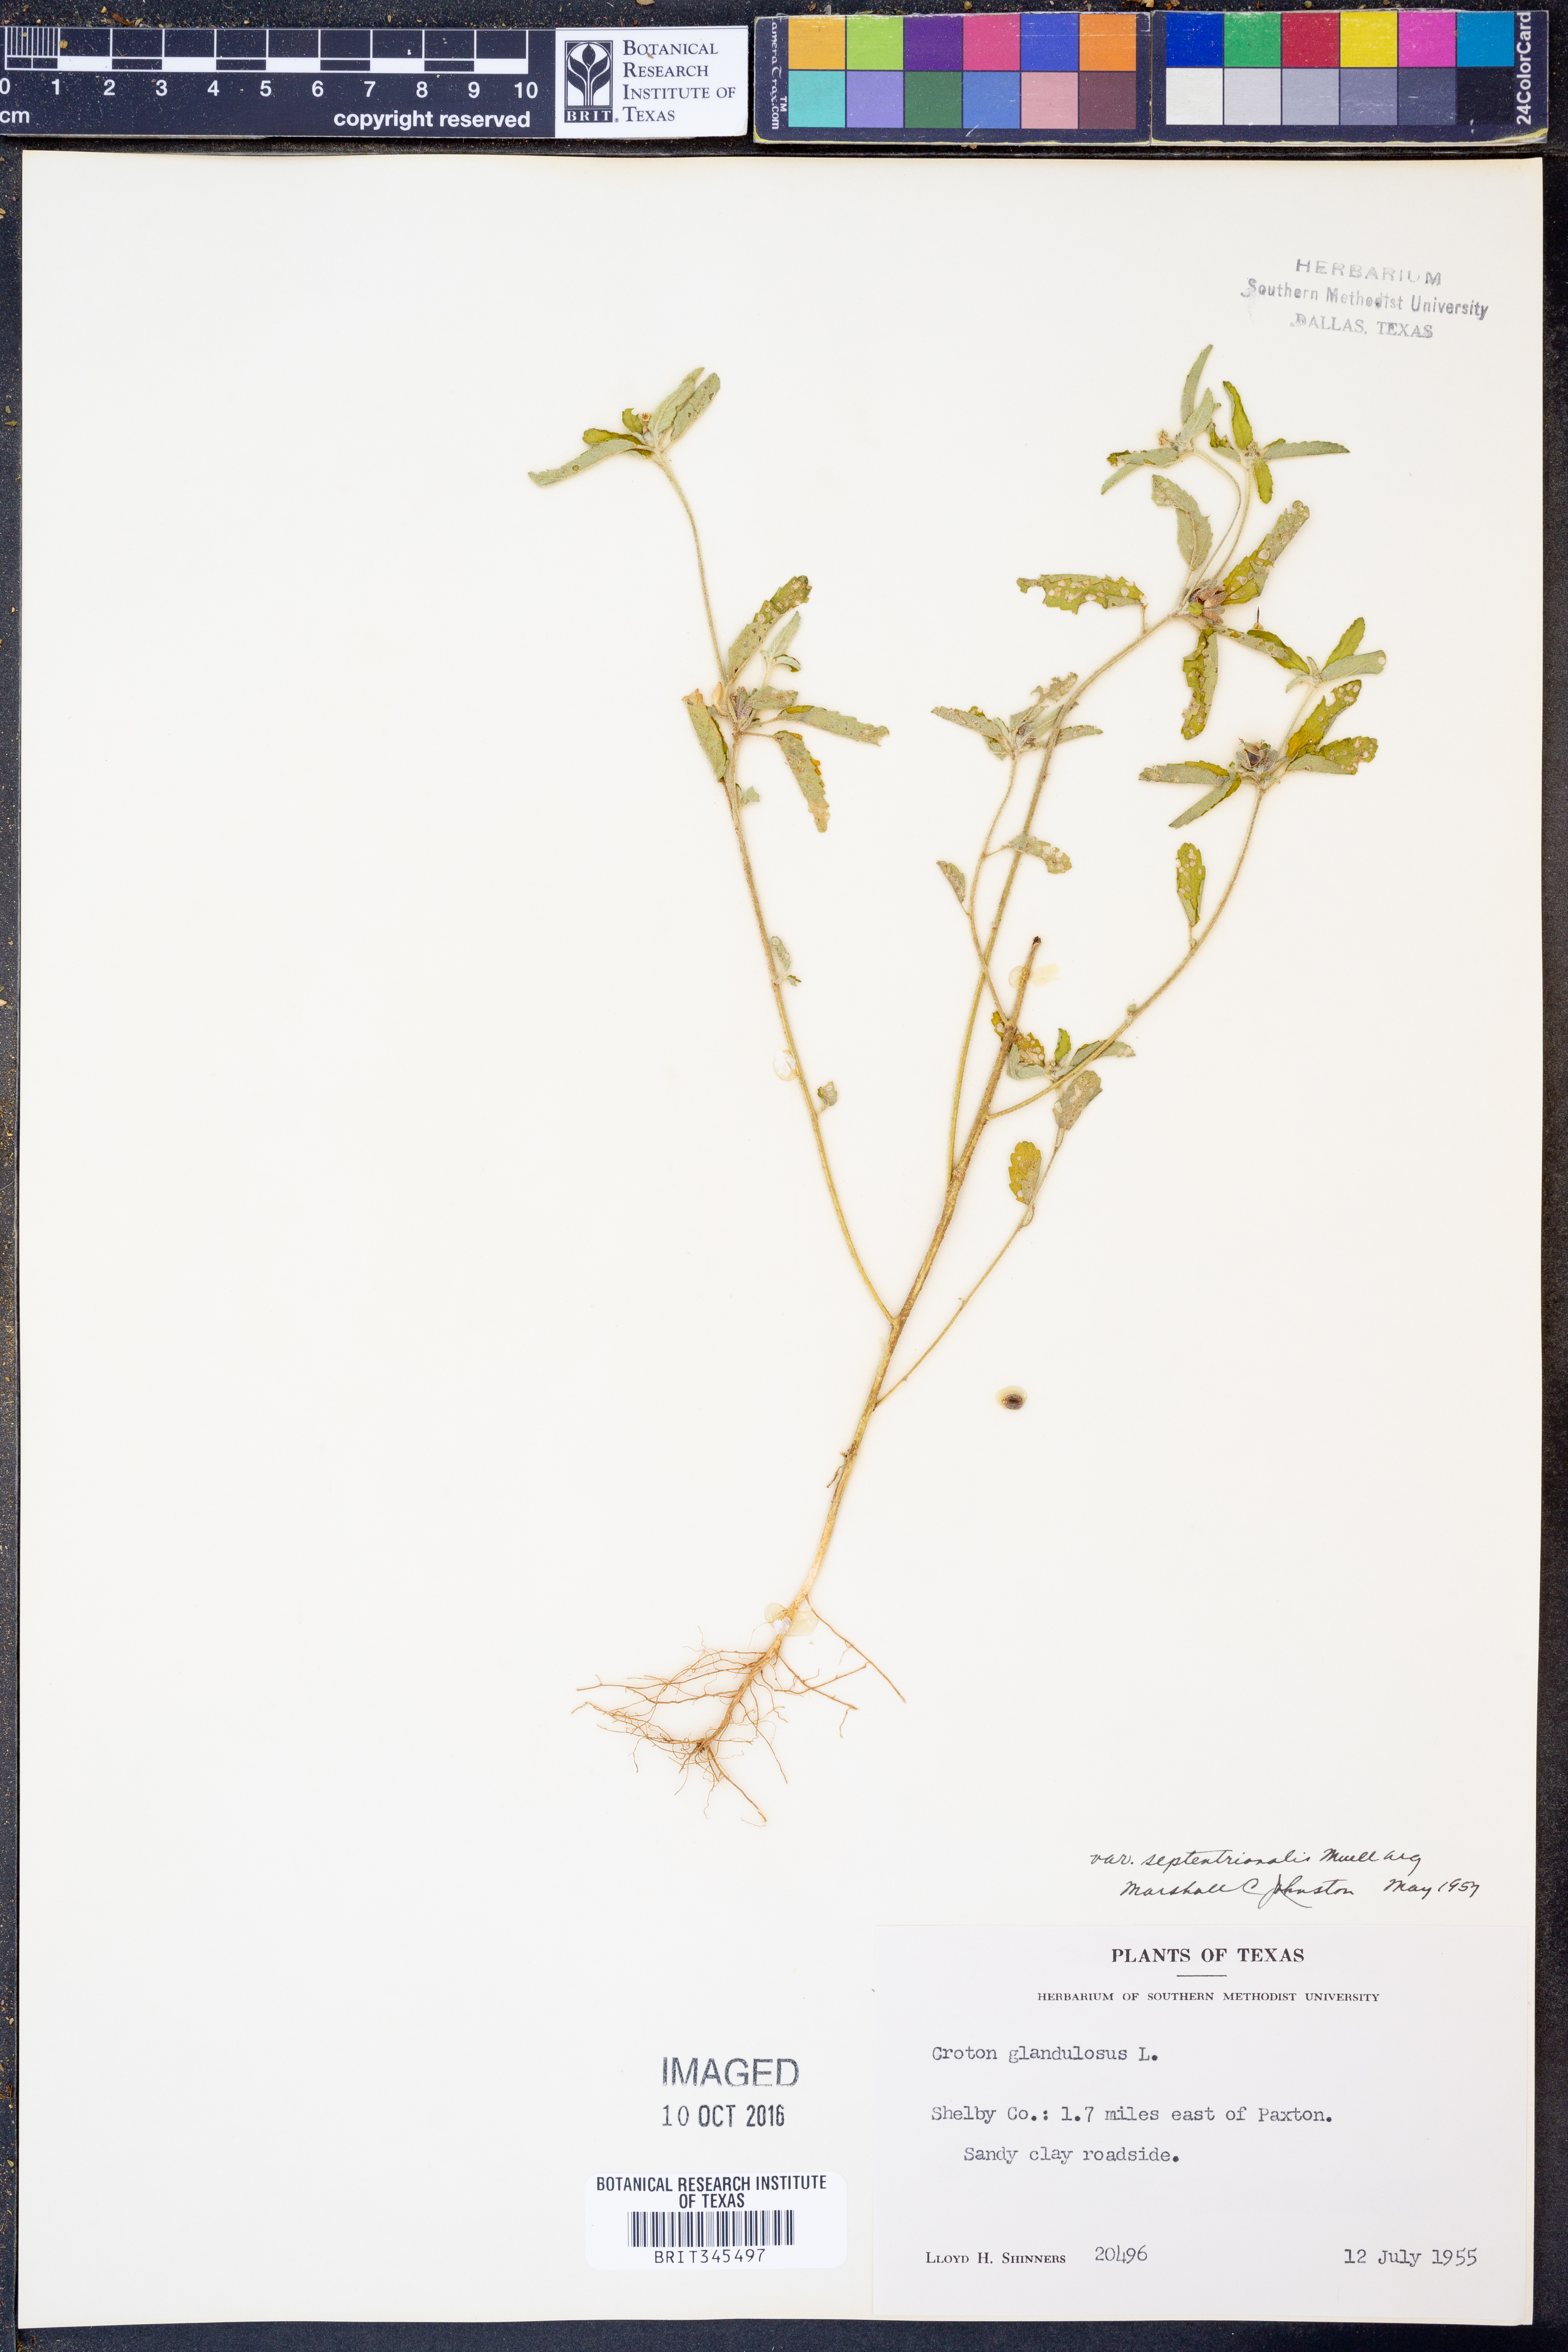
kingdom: Plantae
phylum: Tracheophyta
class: Magnoliopsida
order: Malpighiales
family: Euphorbiaceae
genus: Croton
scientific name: Croton glandulosus
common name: Tropic croton
